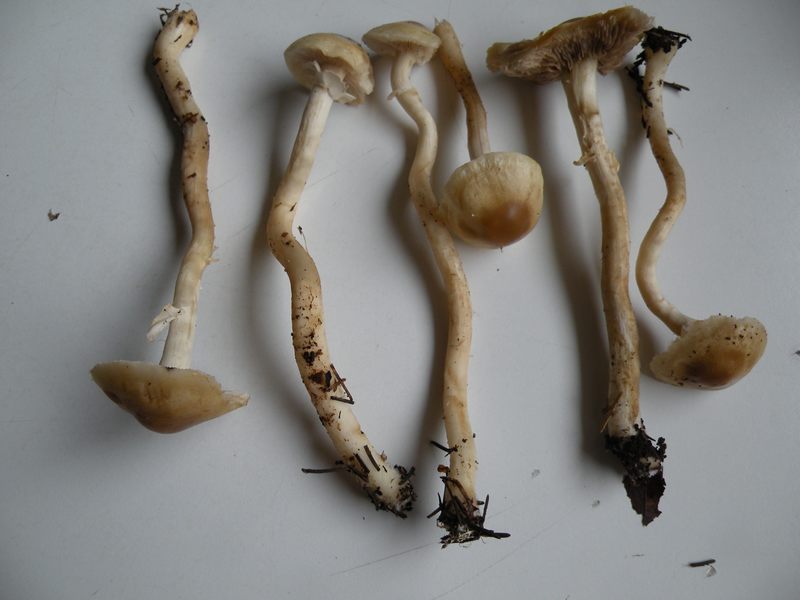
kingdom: Fungi
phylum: Basidiomycota
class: Agaricomycetes
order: Agaricales
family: Strophariaceae
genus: Agrocybe
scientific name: Agrocybe praecox
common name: tidlig agerhat
